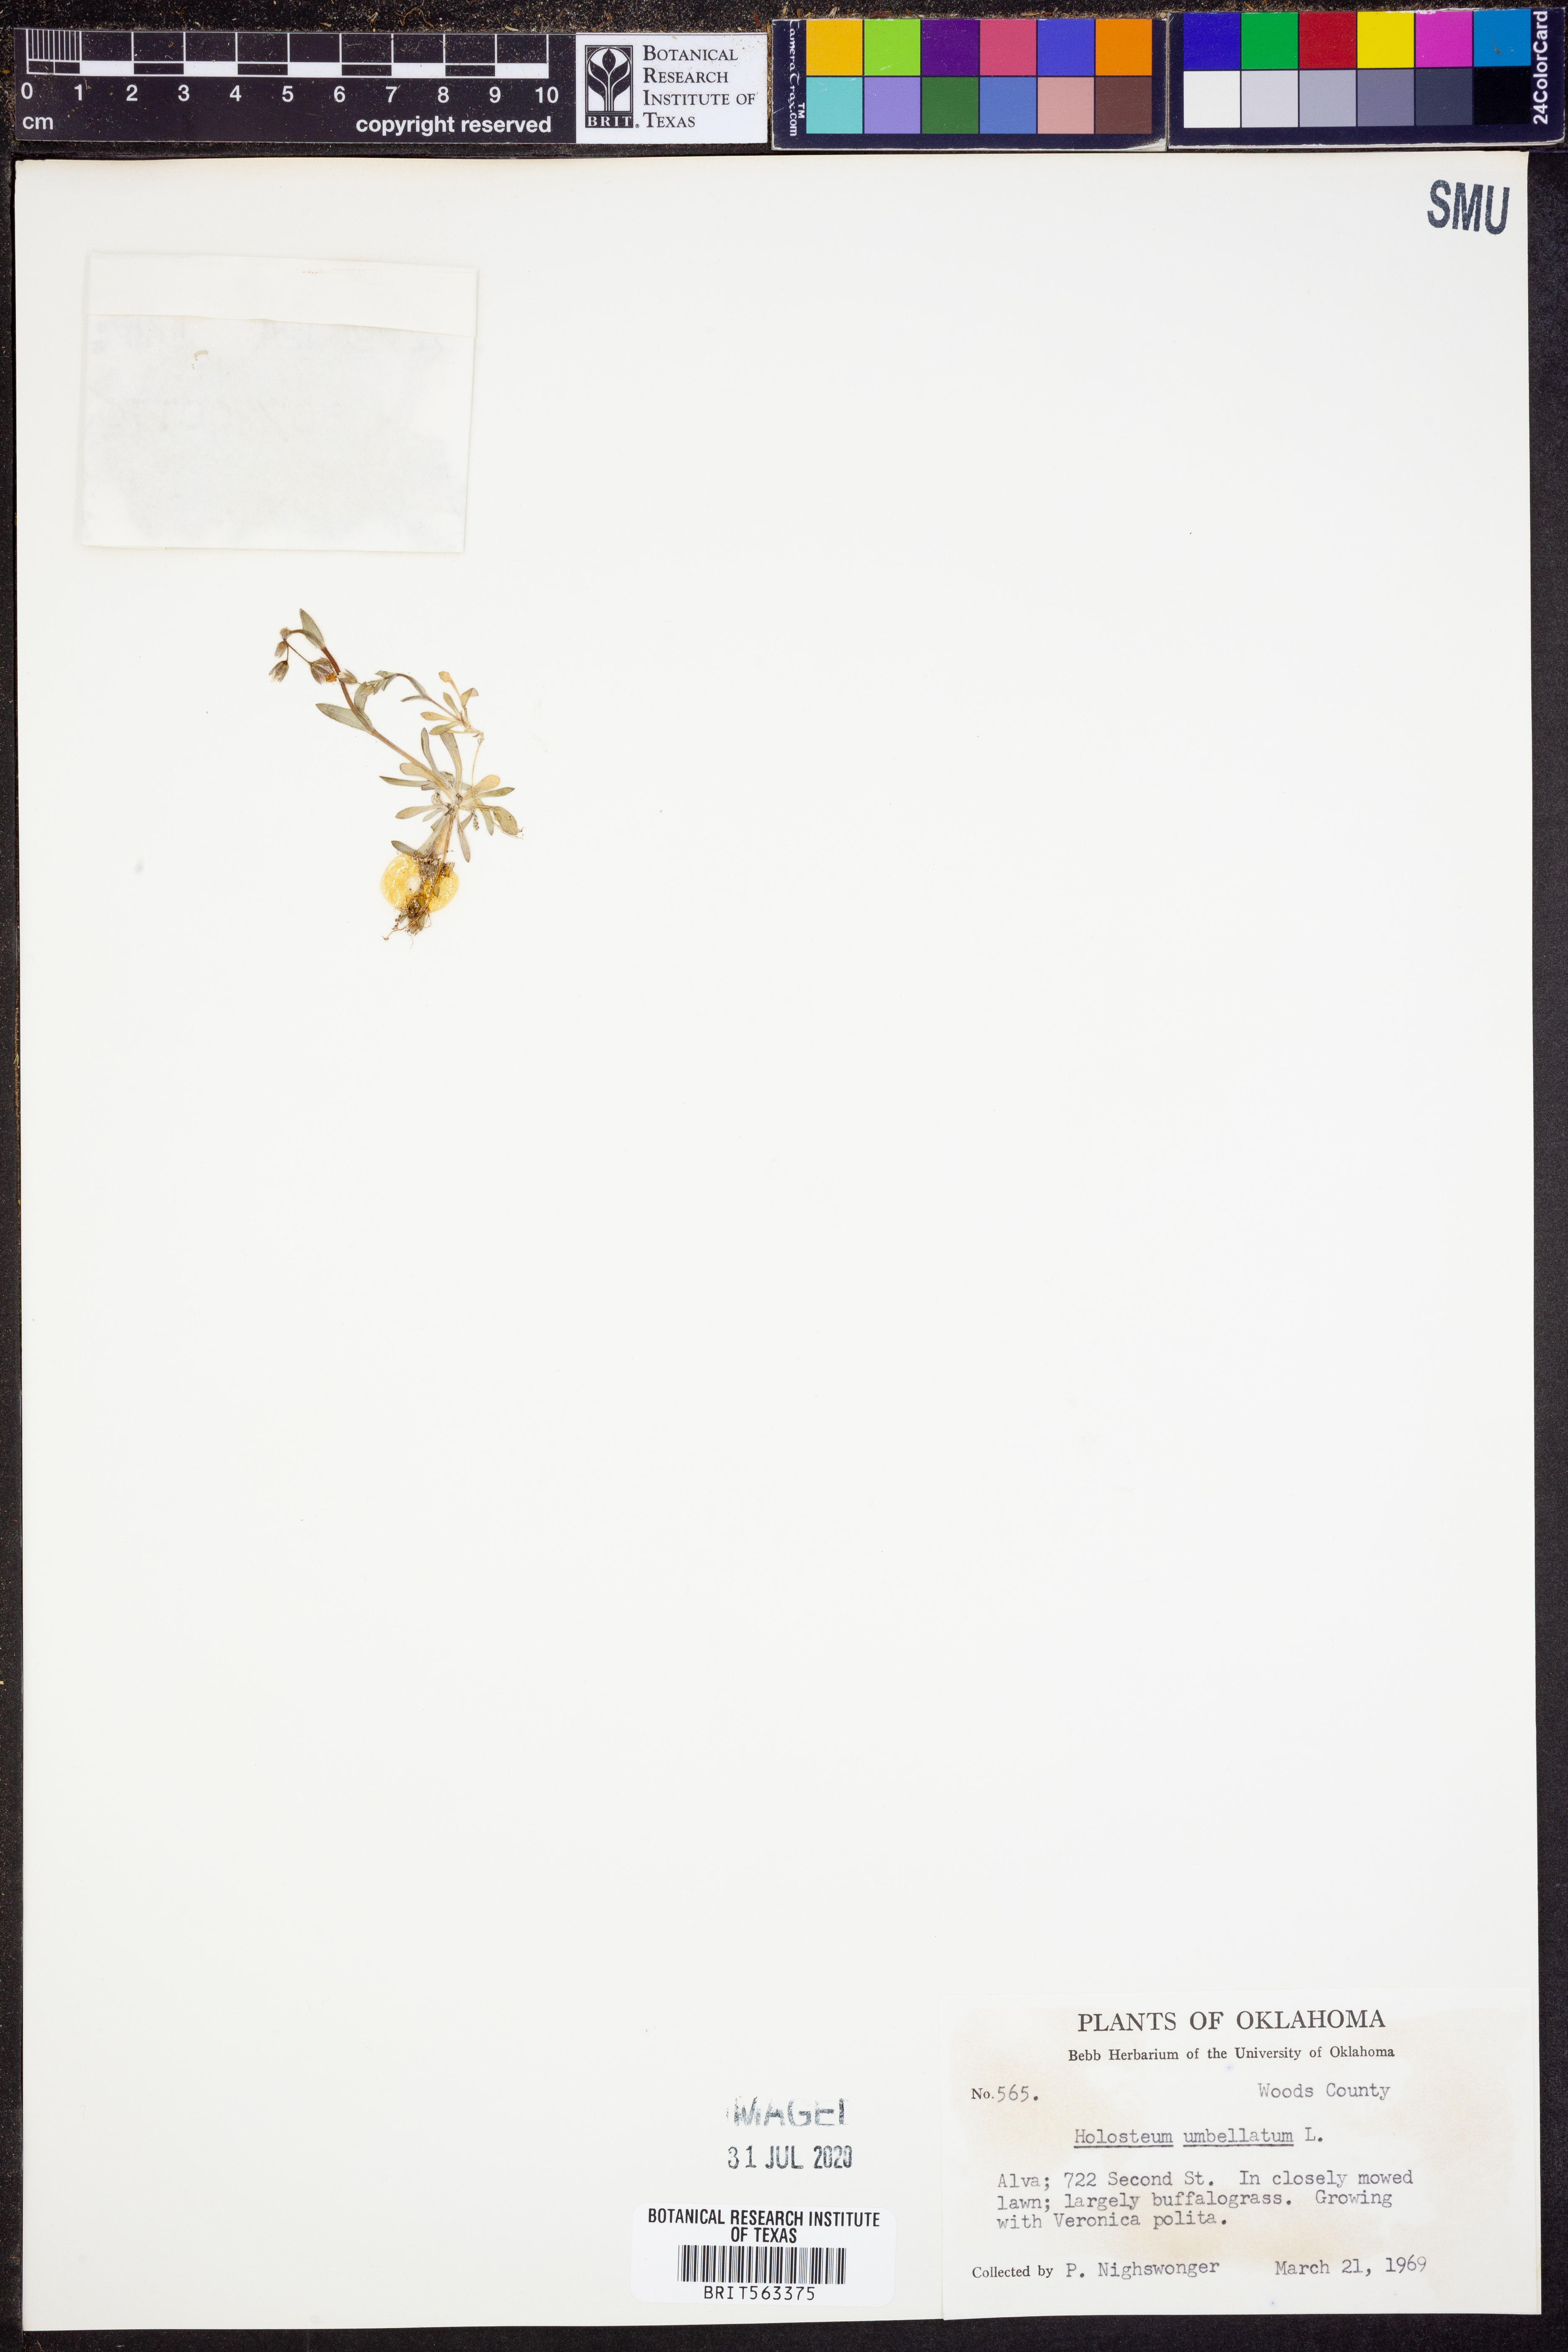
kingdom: Plantae
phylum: Tracheophyta
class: Magnoliopsida
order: Caryophyllales
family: Caryophyllaceae
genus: Holosteum
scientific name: Holosteum umbellatum
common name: Jagged chickweed
